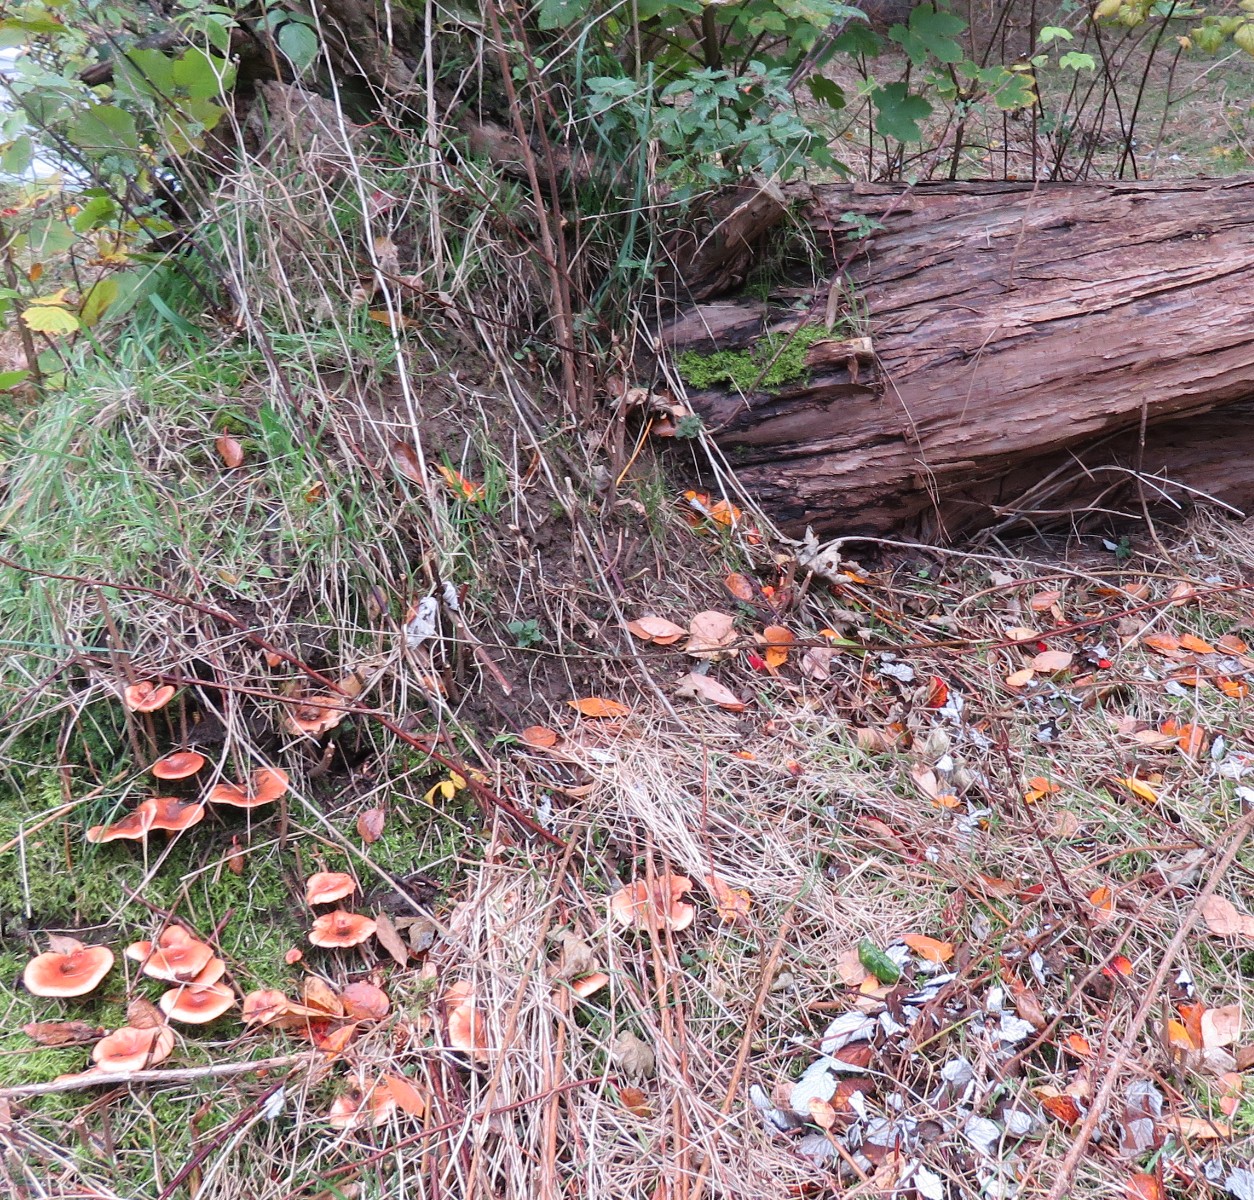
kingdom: Fungi
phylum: Basidiomycota
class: Agaricomycetes
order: Agaricales
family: Tricholomataceae
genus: Paralepista
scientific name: Paralepista flaccida
